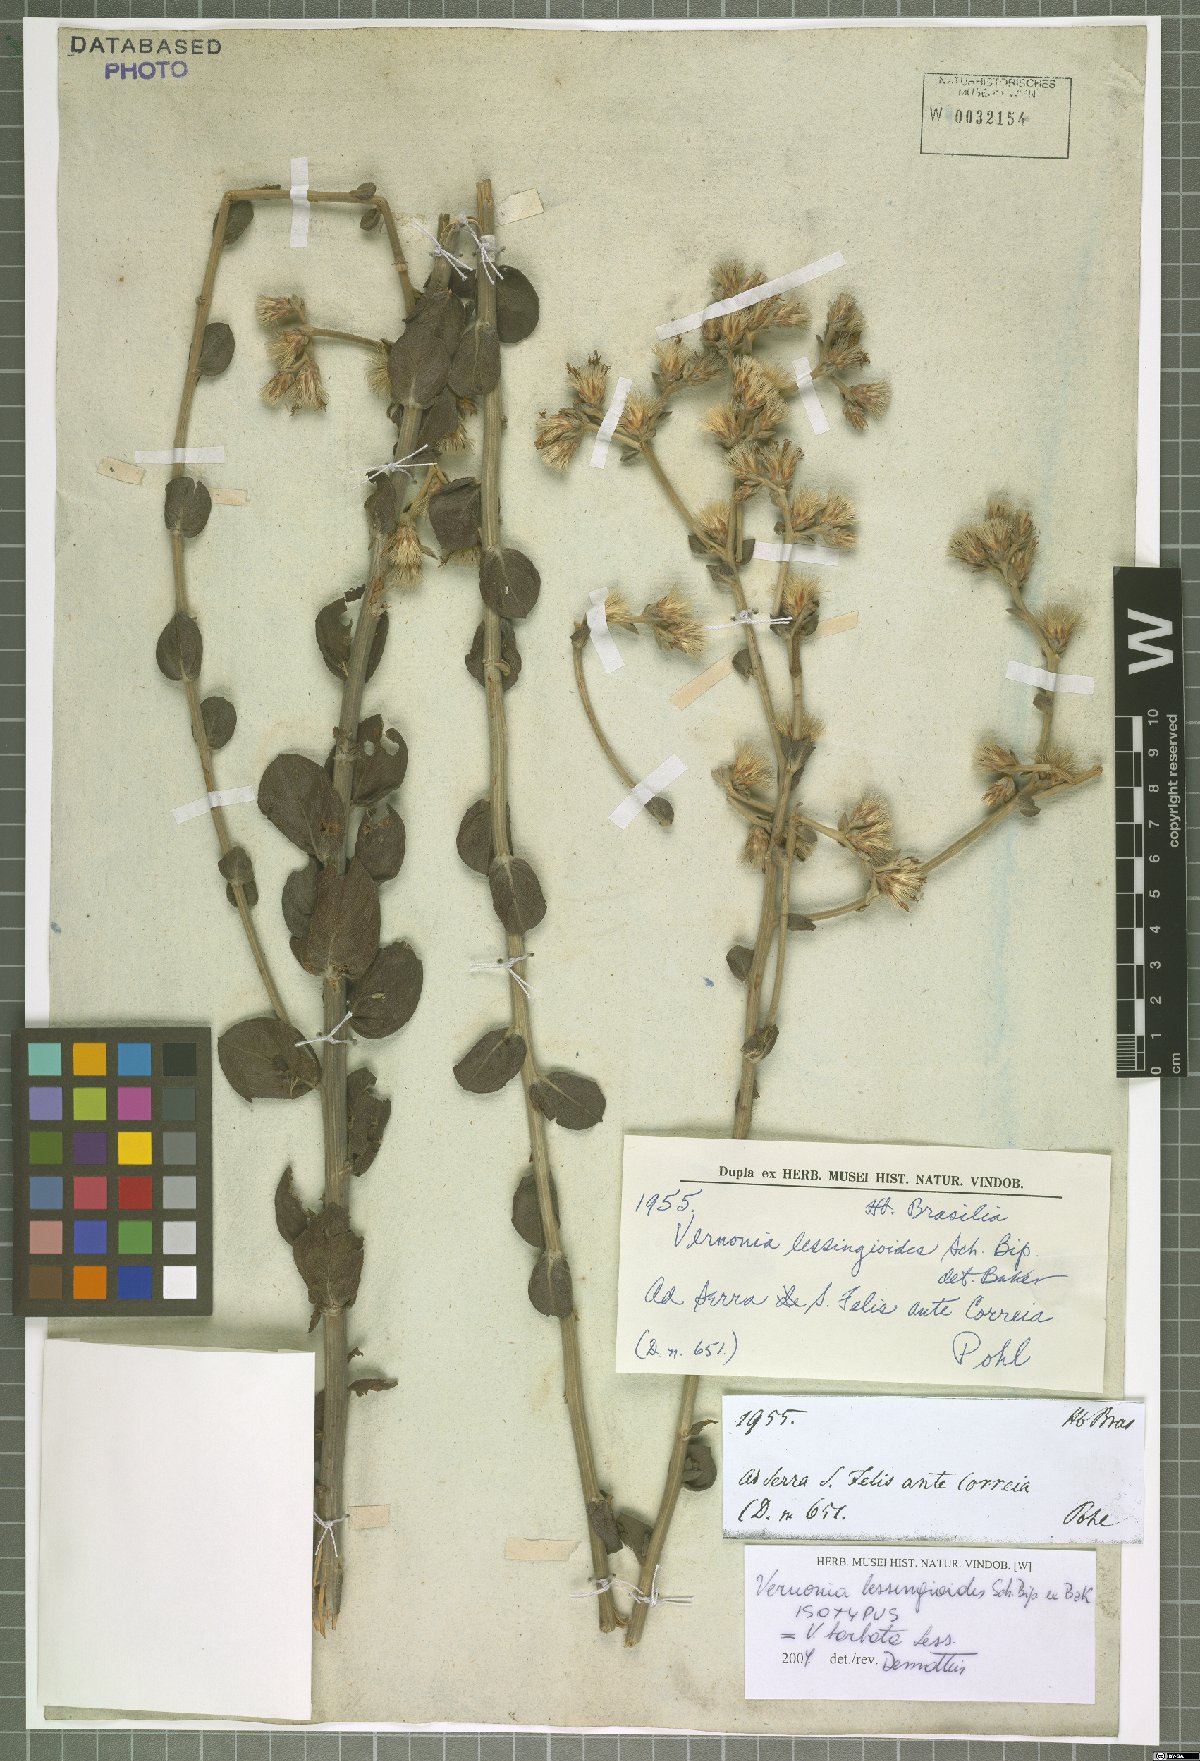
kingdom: Plantae
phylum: Tracheophyta
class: Magnoliopsida
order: Asterales
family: Asteraceae
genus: Lepidaploa
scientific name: Lepidaploa barbata
